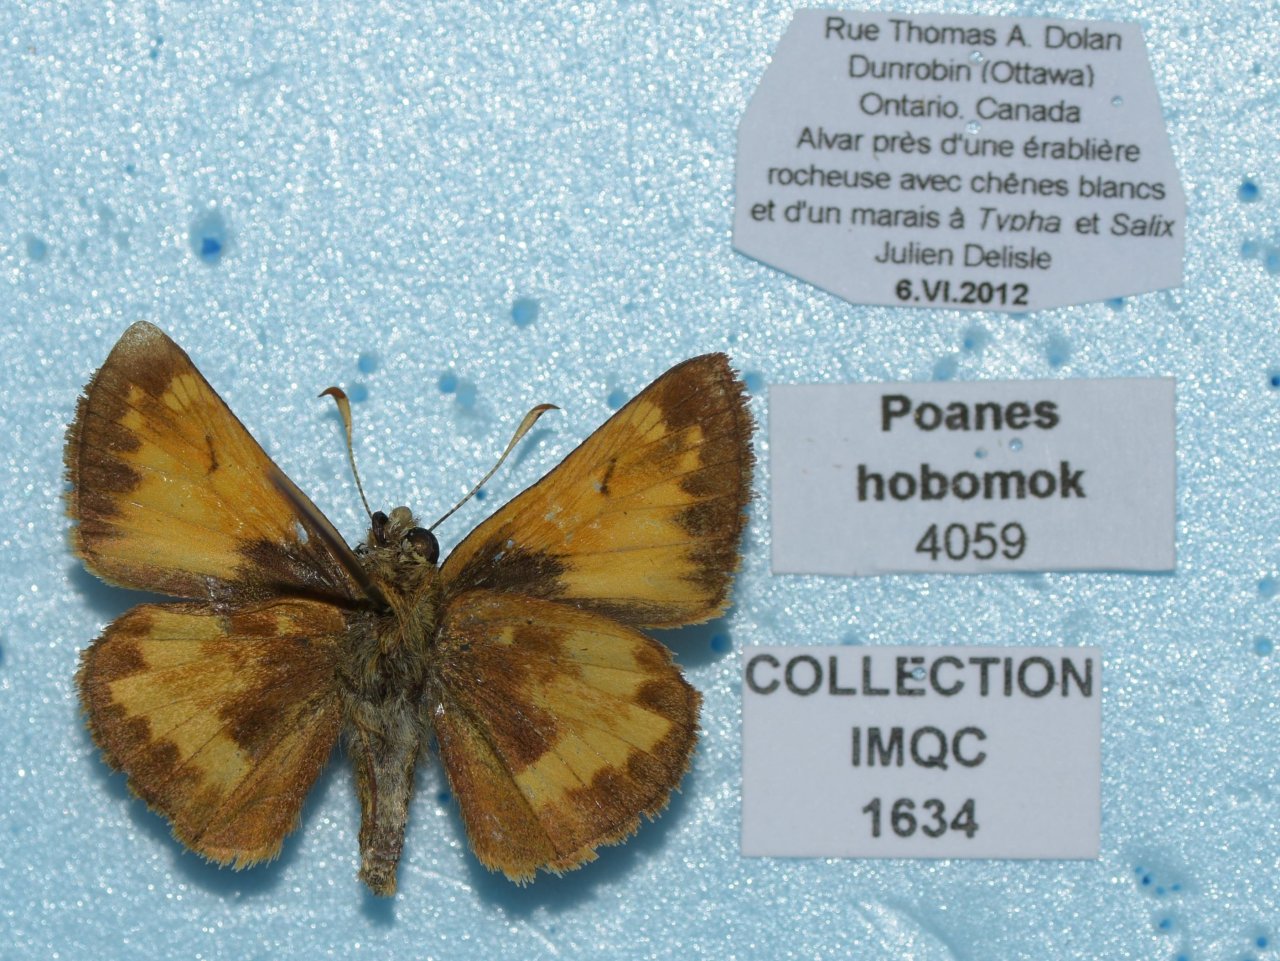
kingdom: Animalia
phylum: Arthropoda
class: Insecta
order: Lepidoptera
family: Hesperiidae
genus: Lon
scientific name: Lon hobomok
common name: Hobomok Skipper
